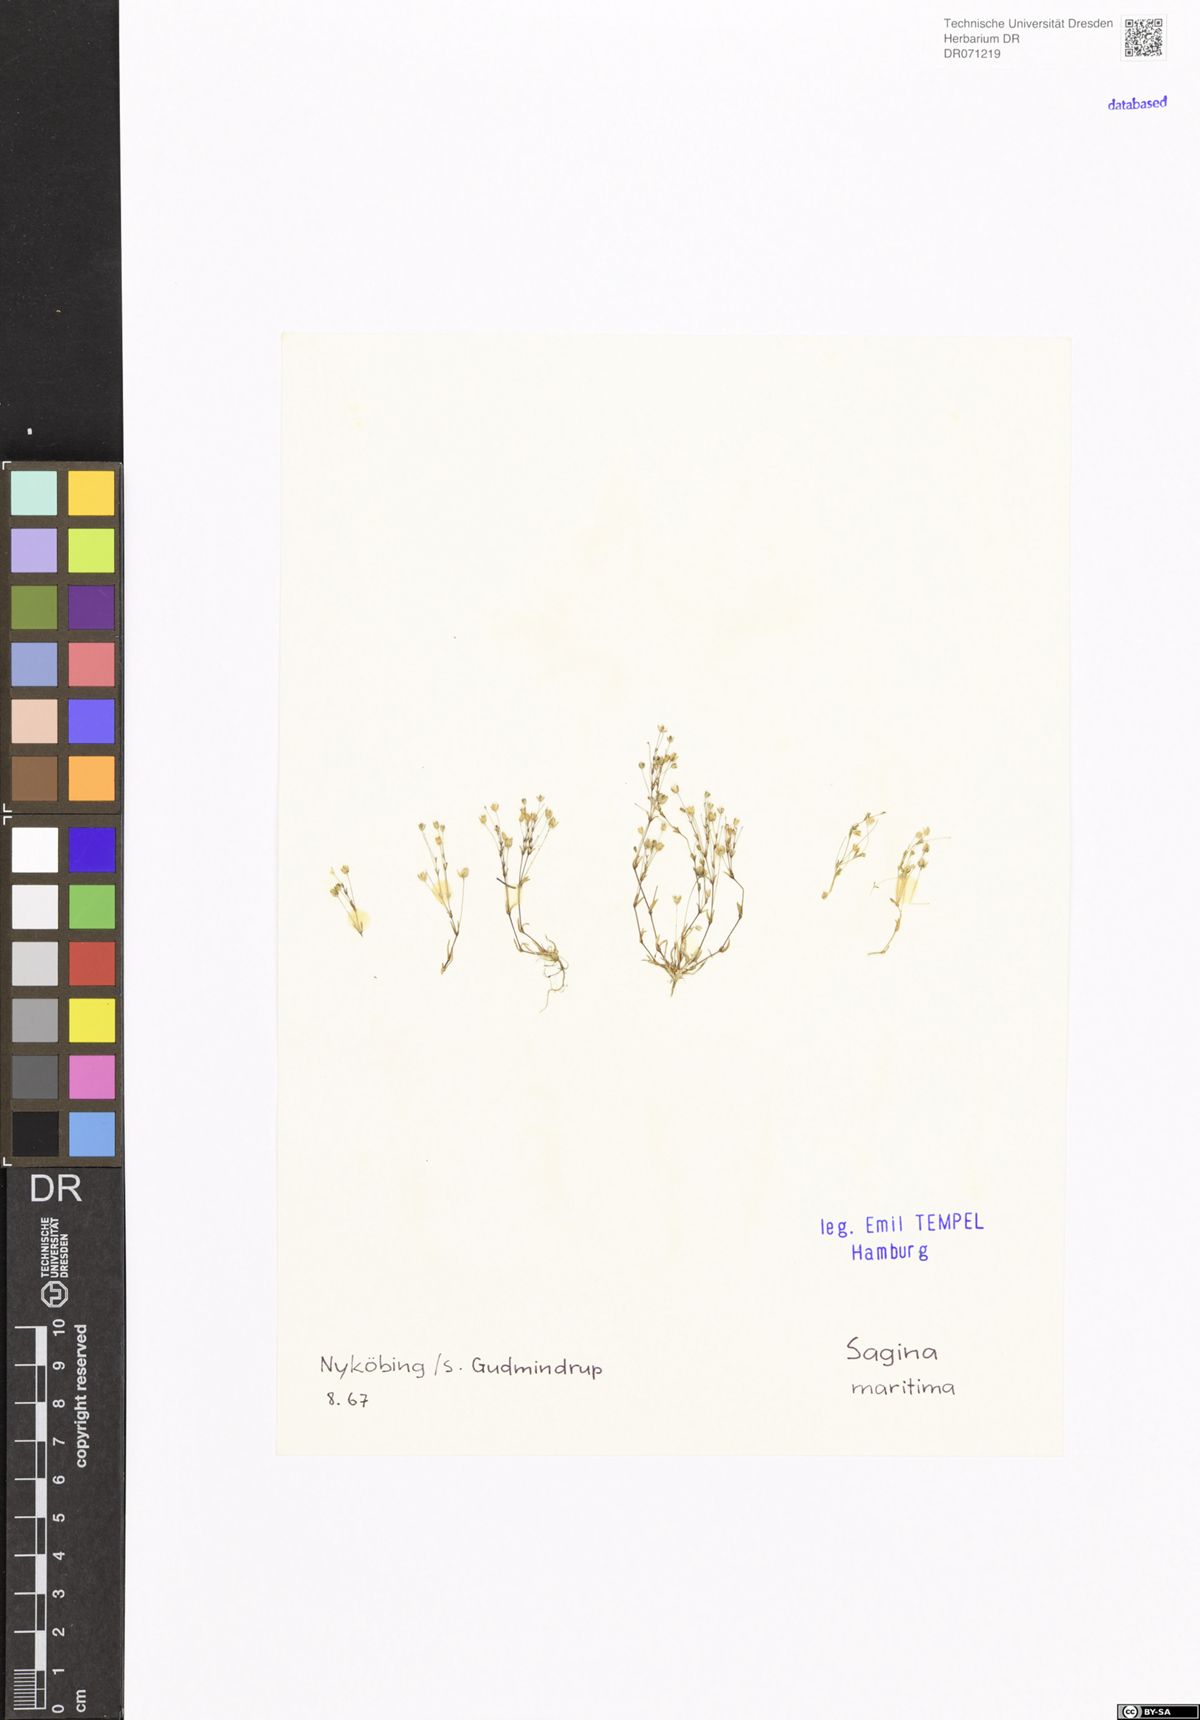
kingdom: Plantae
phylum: Tracheophyta
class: Magnoliopsida
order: Caryophyllales
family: Caryophyllaceae
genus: Sagina
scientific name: Sagina maritima
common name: Sea pearlwort
